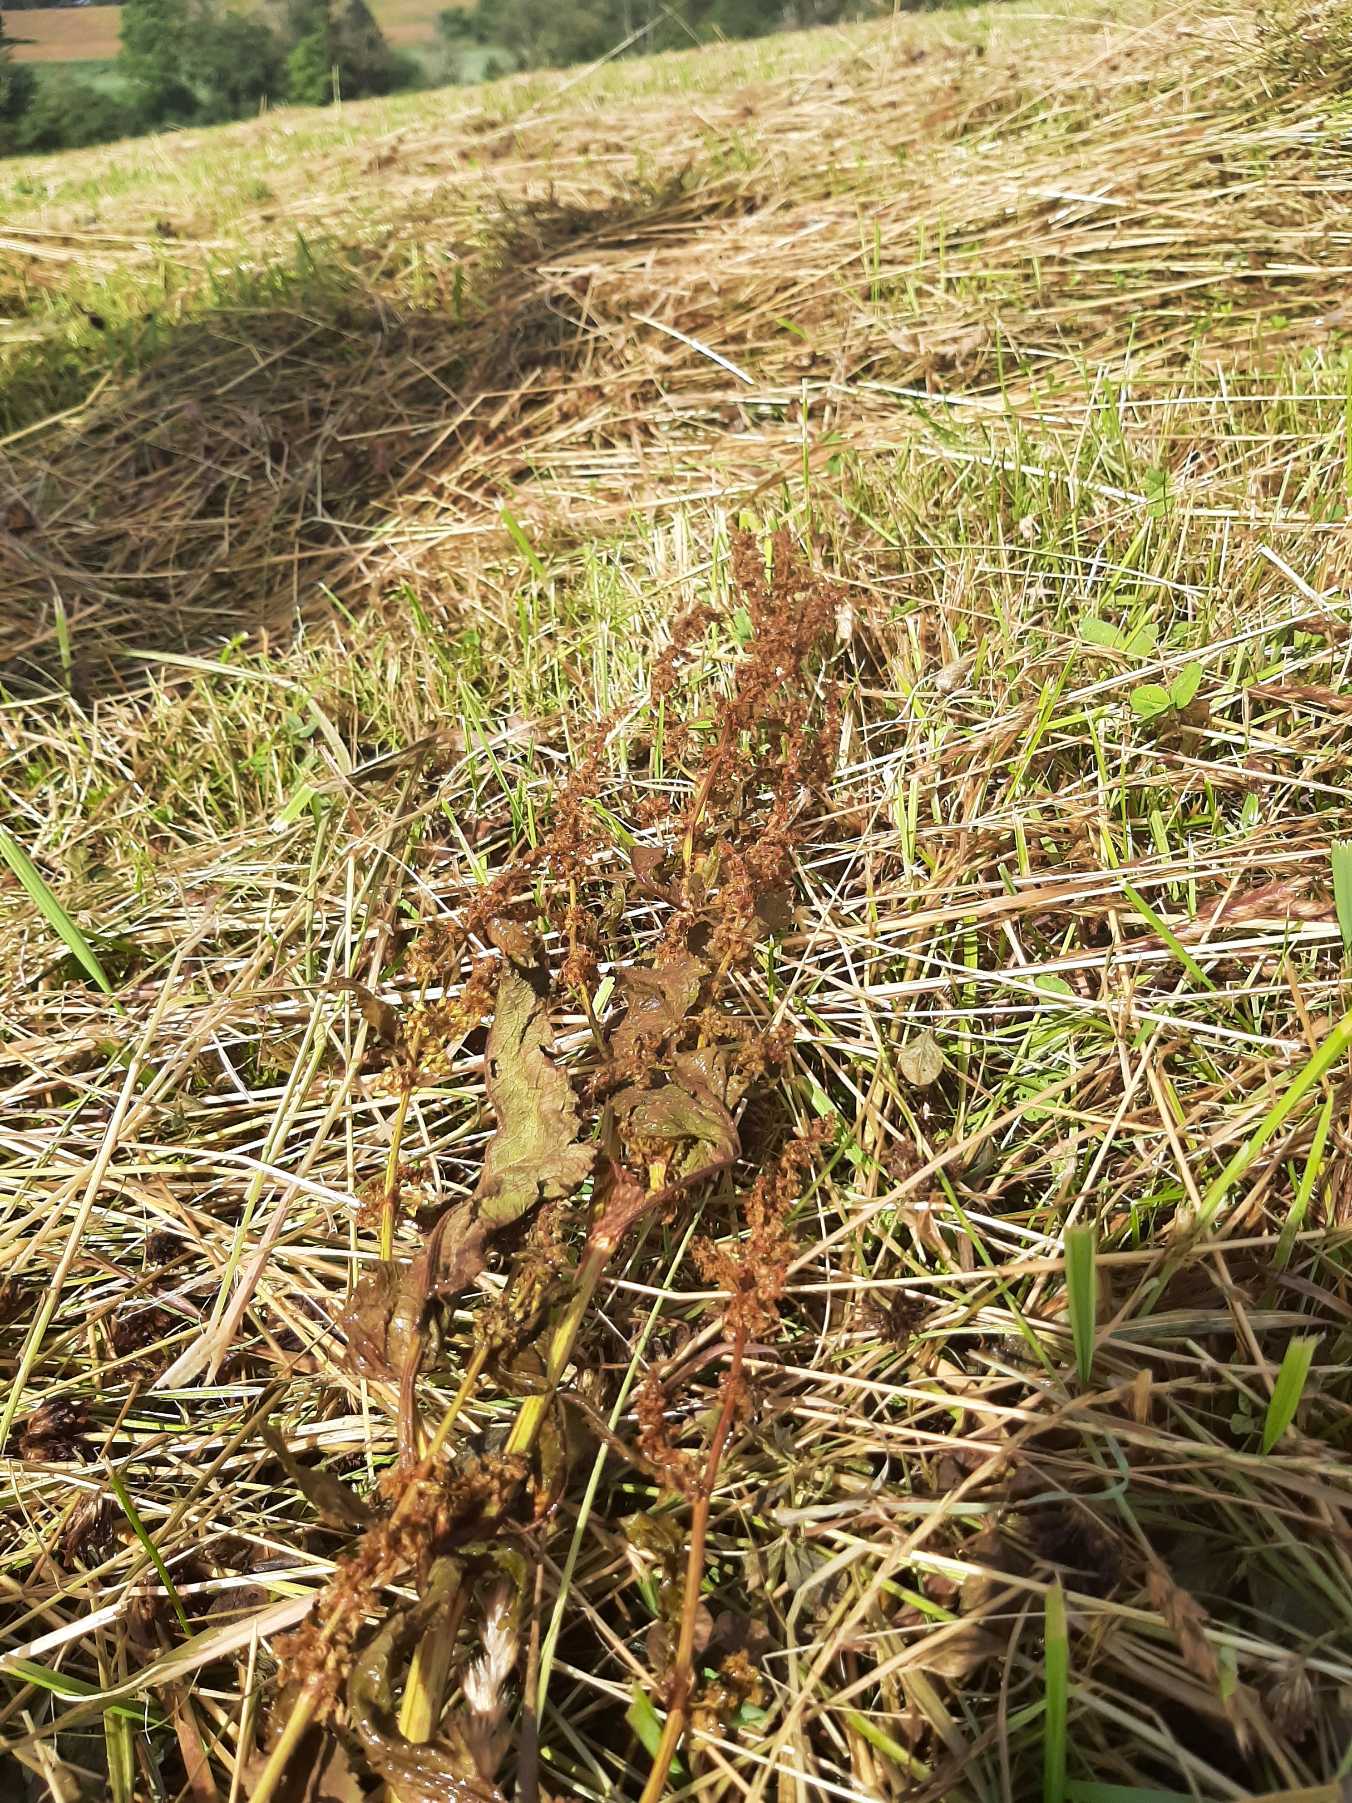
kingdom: Plantae
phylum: Tracheophyta
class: Magnoliopsida
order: Caryophyllales
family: Polygonaceae
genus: Rumex
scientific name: Rumex obtusifolius
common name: Butbladet skræppe
